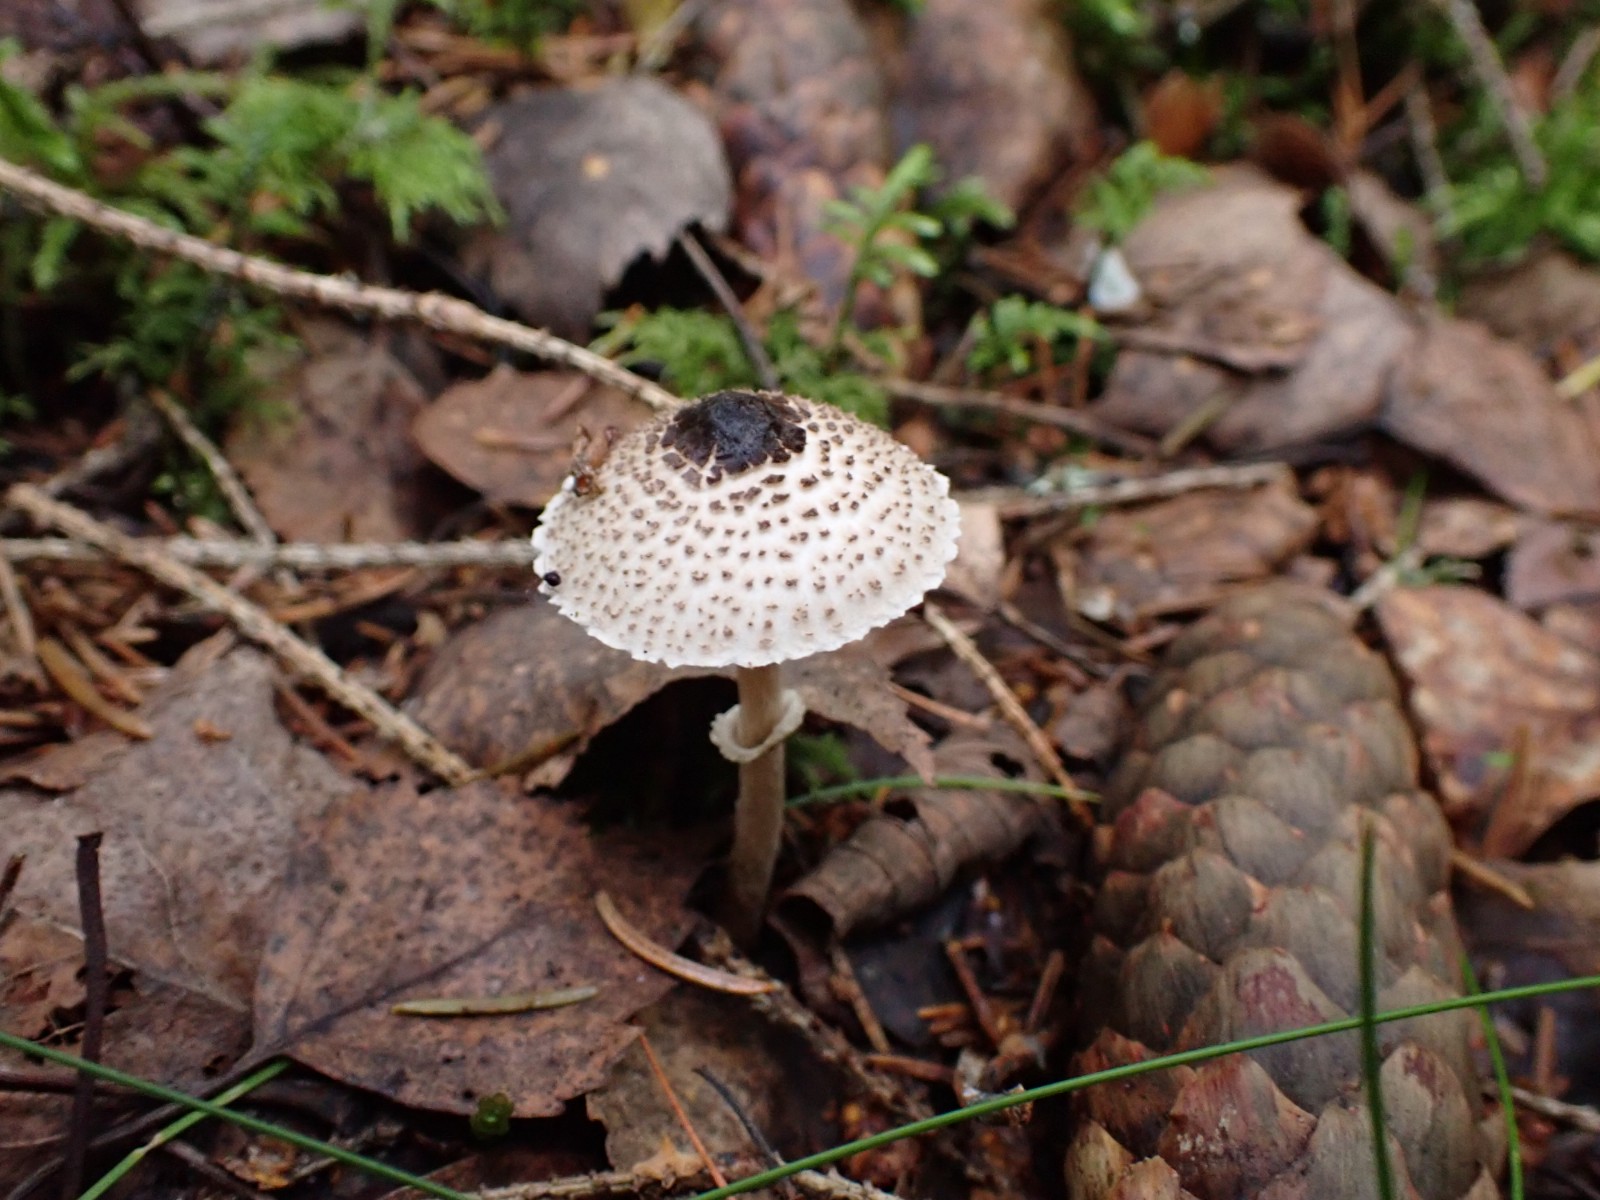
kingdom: Fungi
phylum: Basidiomycota
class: Agaricomycetes
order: Agaricales
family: Agaricaceae
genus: Lepiota
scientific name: Lepiota felina
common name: sortskællet parasolhat
